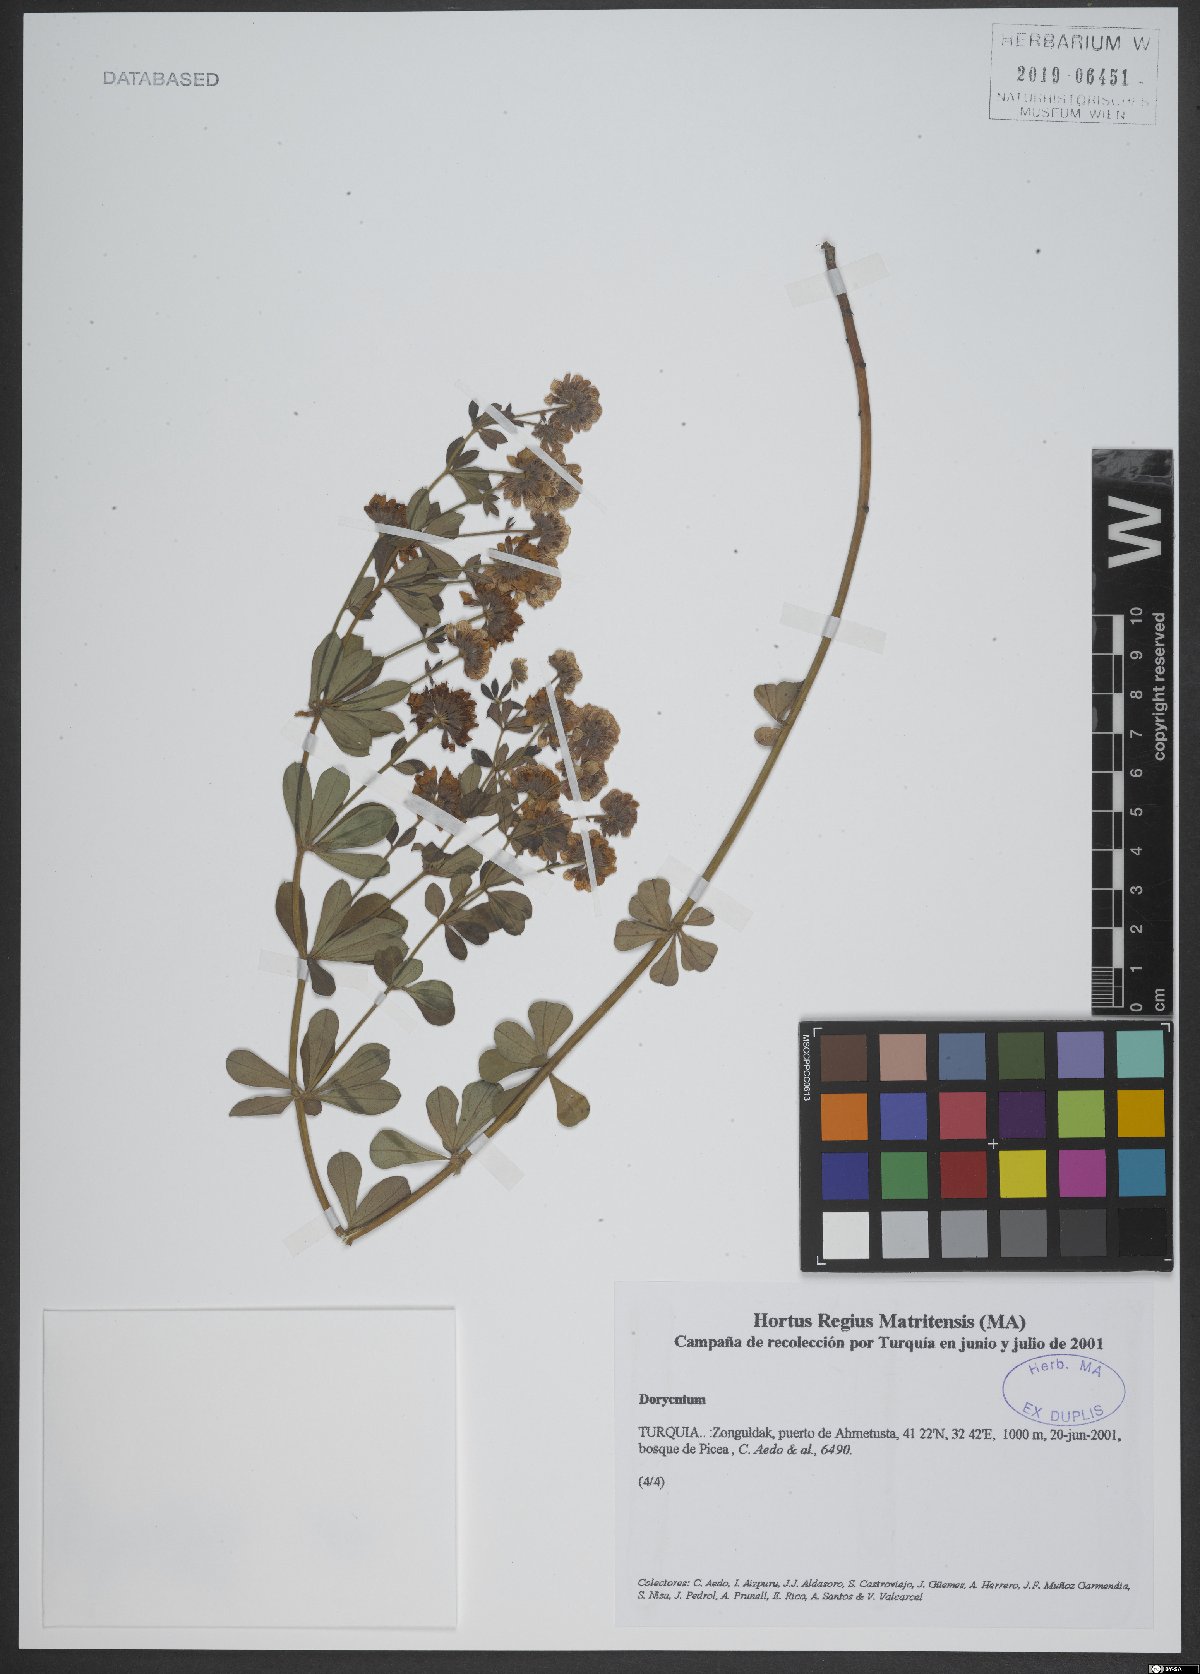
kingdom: Plantae
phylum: Tracheophyta
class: Magnoliopsida
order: Fabales
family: Fabaceae
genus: Lotus
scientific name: Lotus
